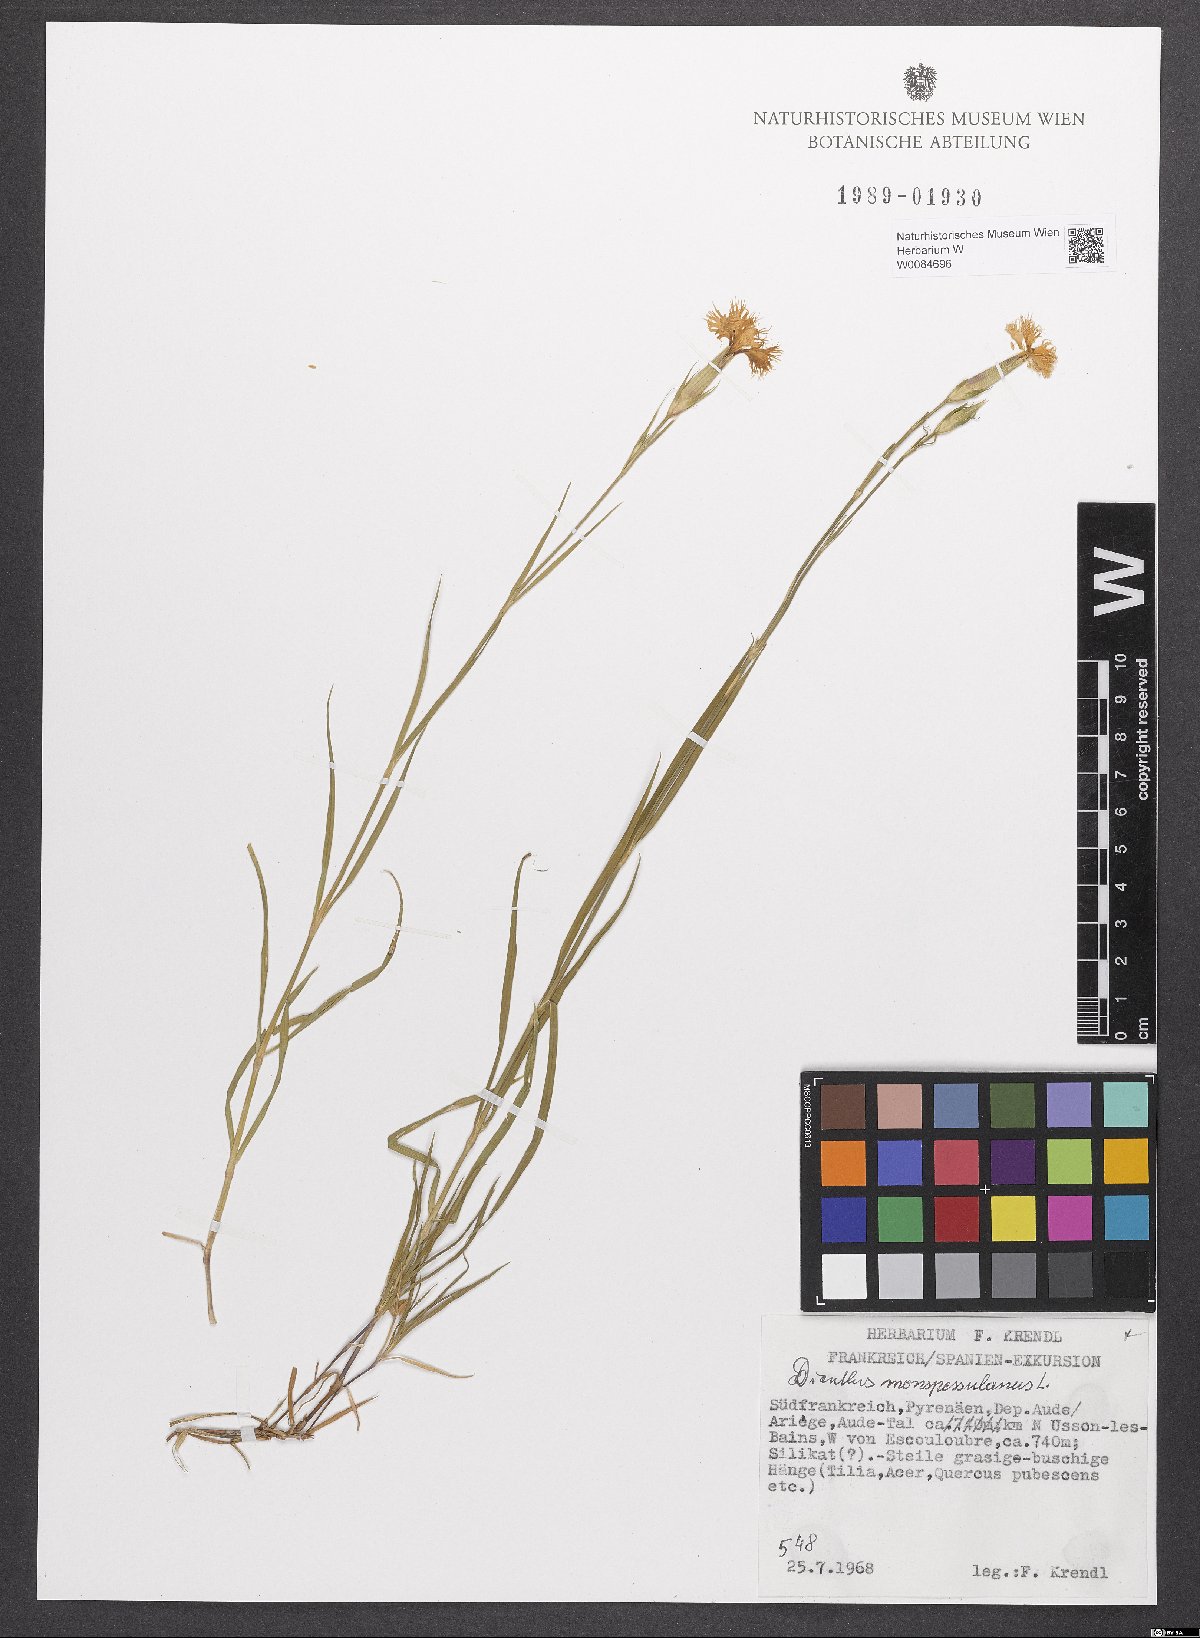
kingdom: Plantae
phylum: Tracheophyta
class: Magnoliopsida
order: Caryophyllales
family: Caryophyllaceae
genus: Dianthus
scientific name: Dianthus hyssopifolius
